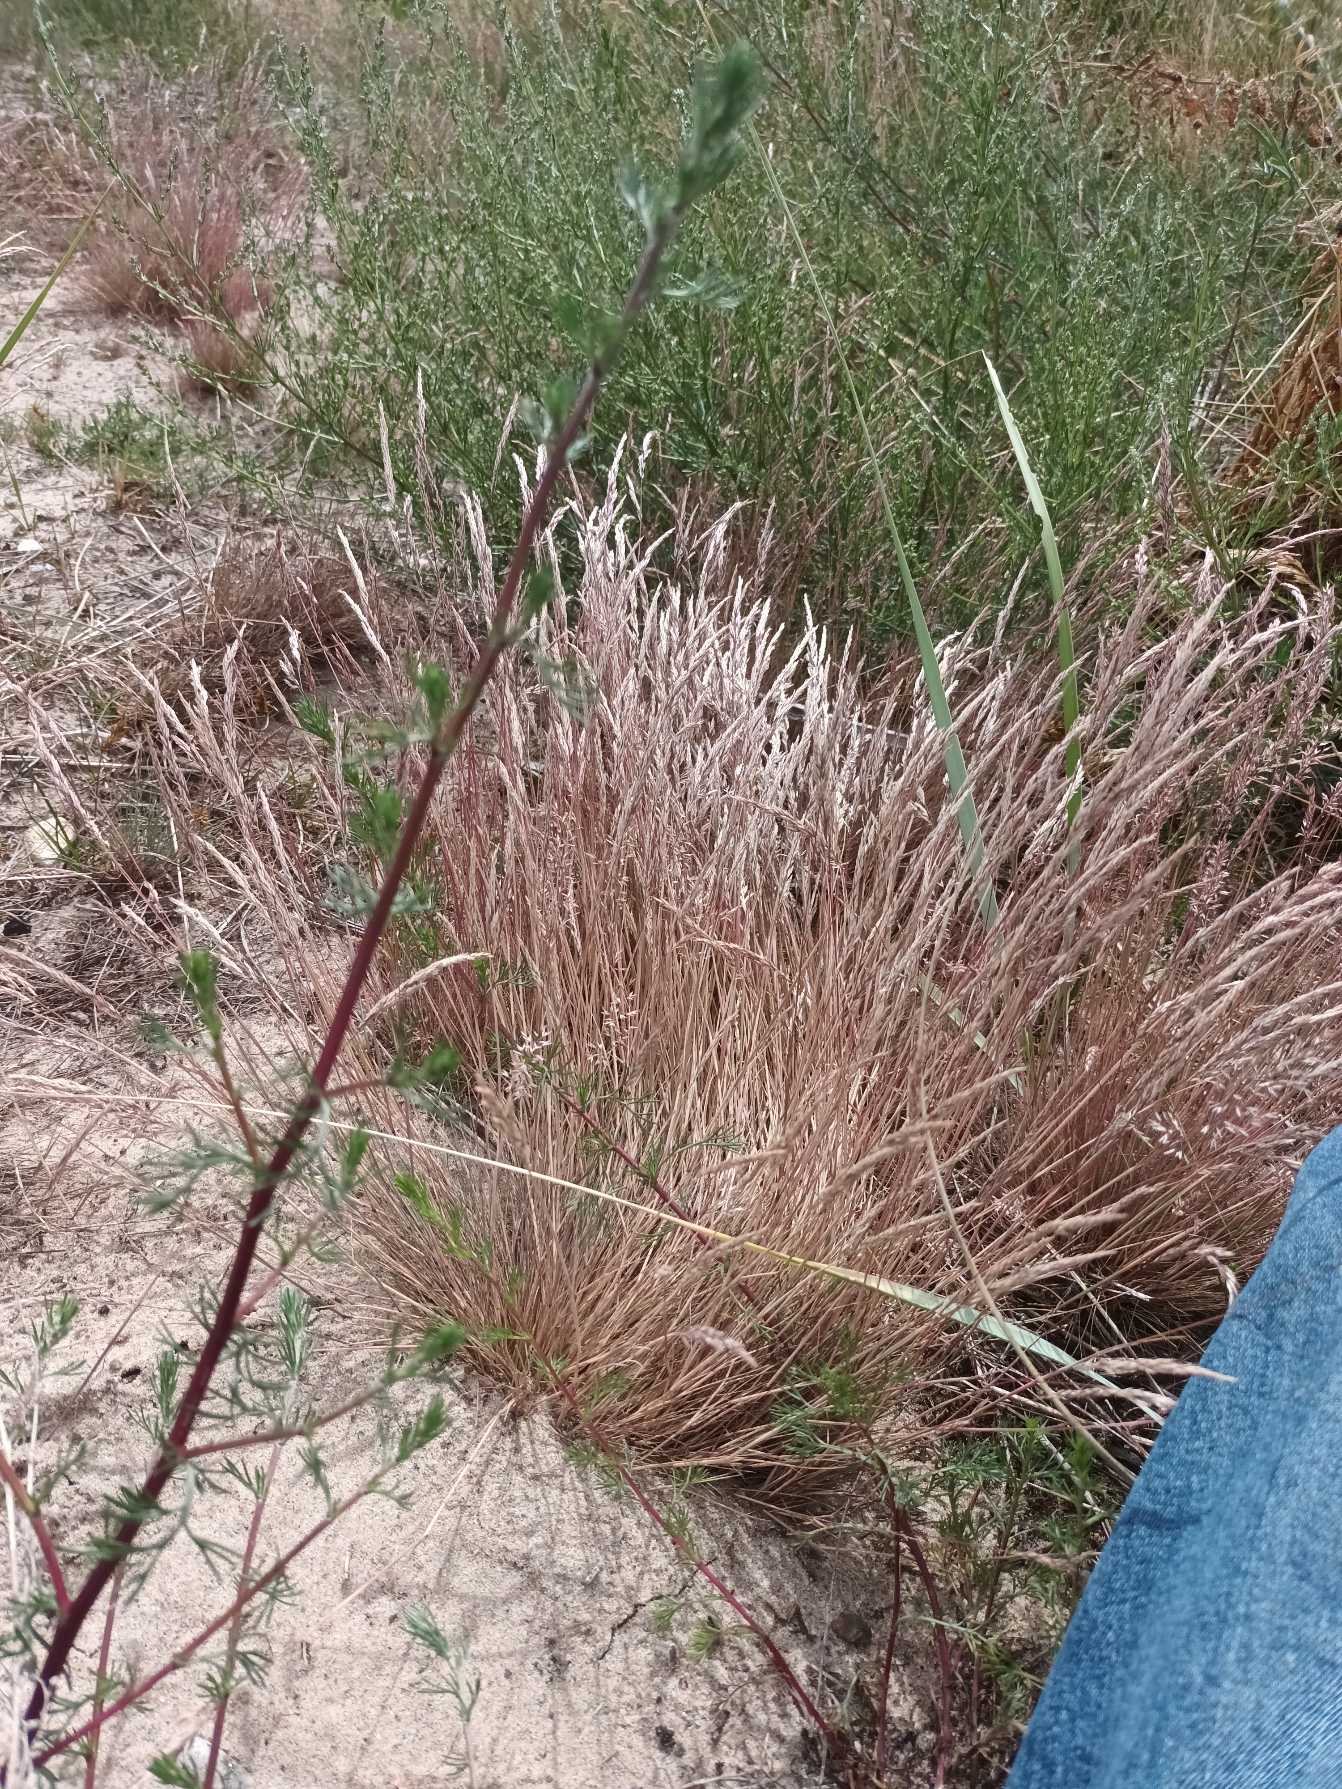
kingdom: Plantae
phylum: Tracheophyta
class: Liliopsida
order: Poales
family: Poaceae
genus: Corynephorus
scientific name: Corynephorus canescens
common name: Sandskæg
